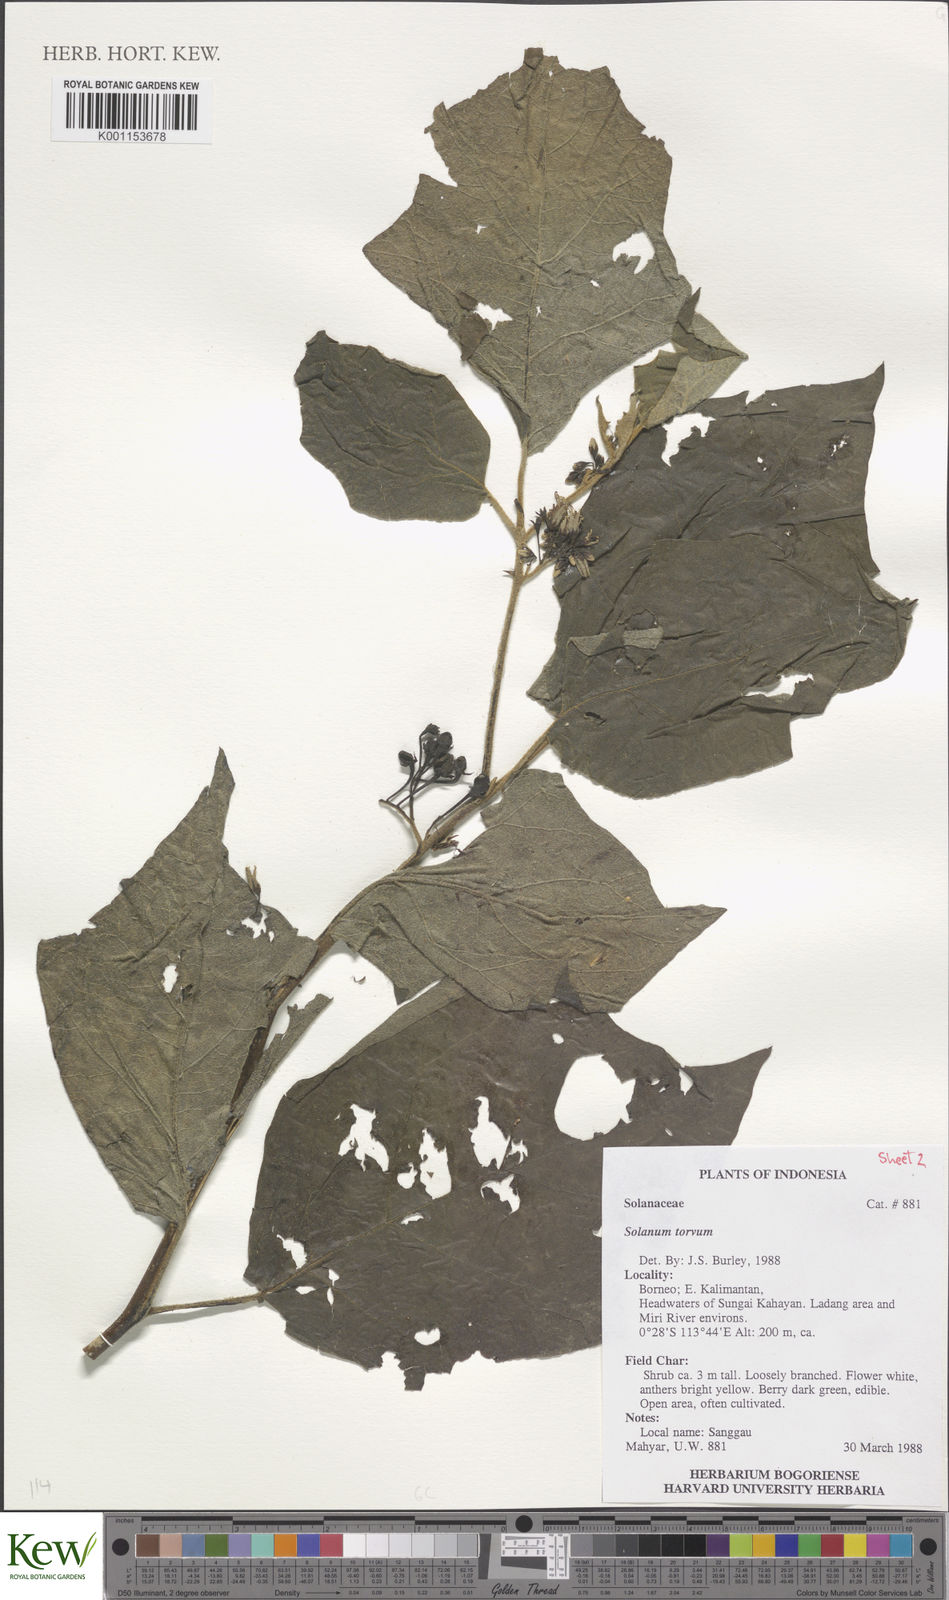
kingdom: Plantae
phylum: Tracheophyta
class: Magnoliopsida
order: Solanales
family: Solanaceae
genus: Solanum
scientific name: Solanum torvum
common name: Turkey berry
